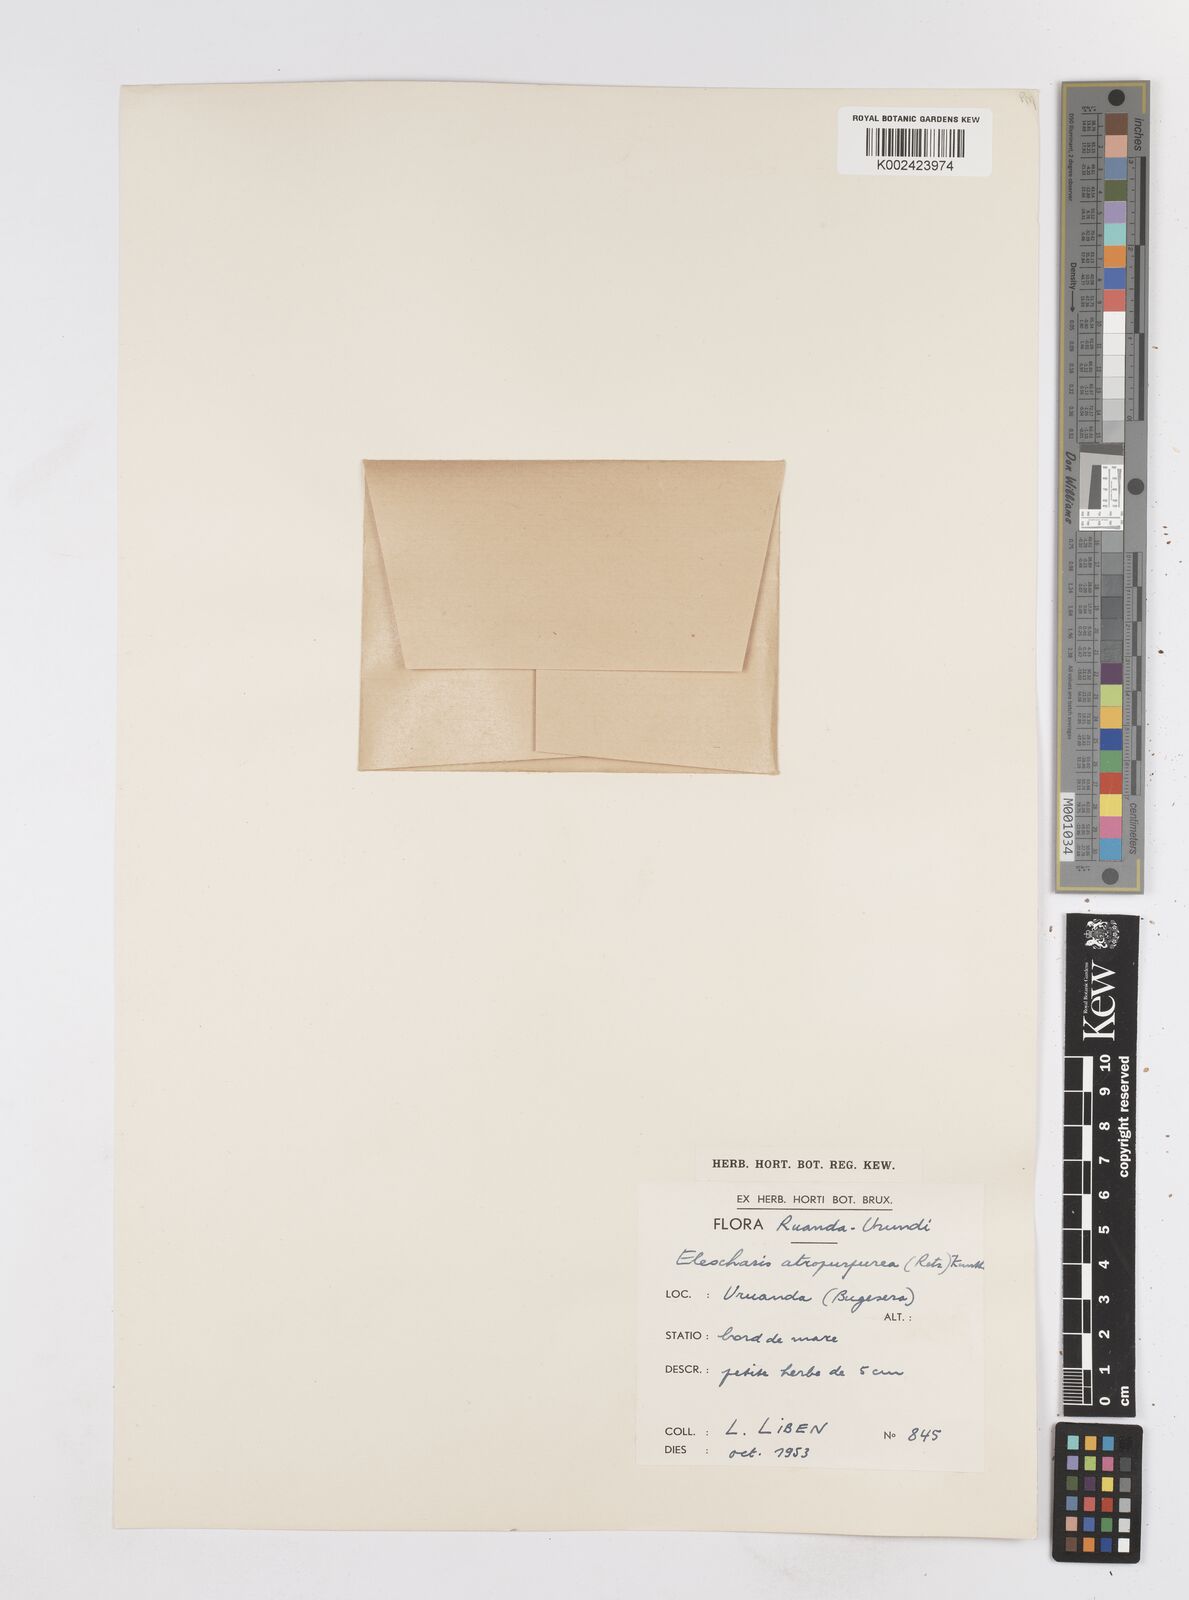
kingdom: Plantae
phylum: Tracheophyta
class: Liliopsida
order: Poales
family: Cyperaceae
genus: Eleocharis
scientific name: Eleocharis atropurpurea
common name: Purple spikerush
